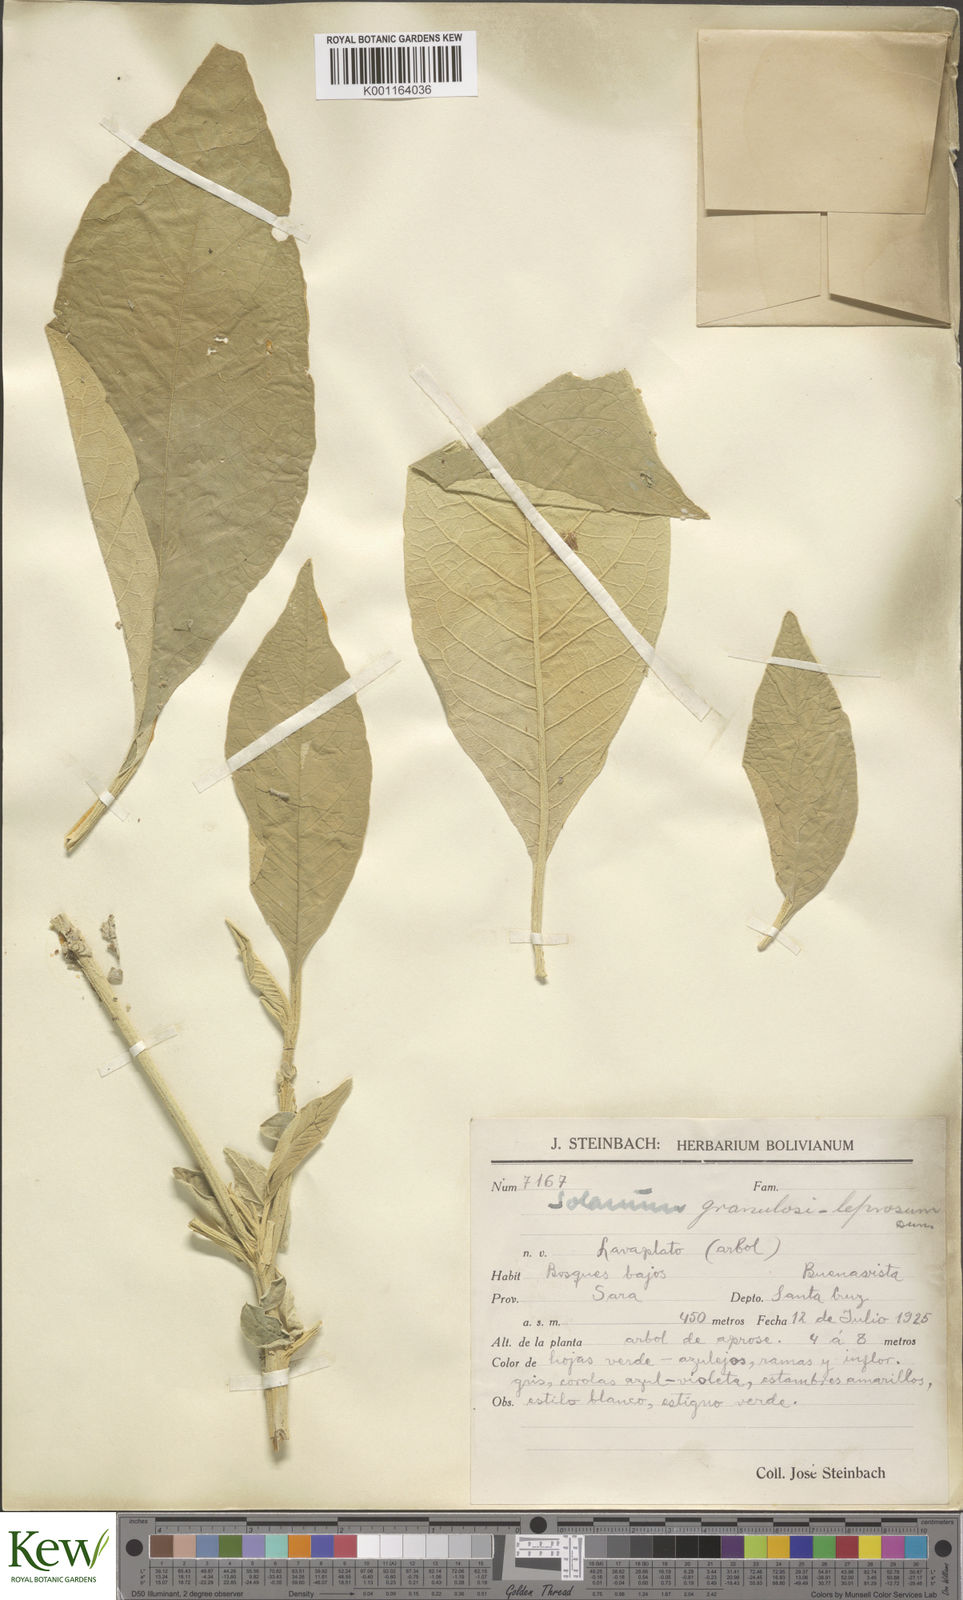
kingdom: Plantae
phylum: Tracheophyta
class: Magnoliopsida
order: Solanales
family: Solanaceae
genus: Solanum
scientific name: Solanum granulosoleprosum
